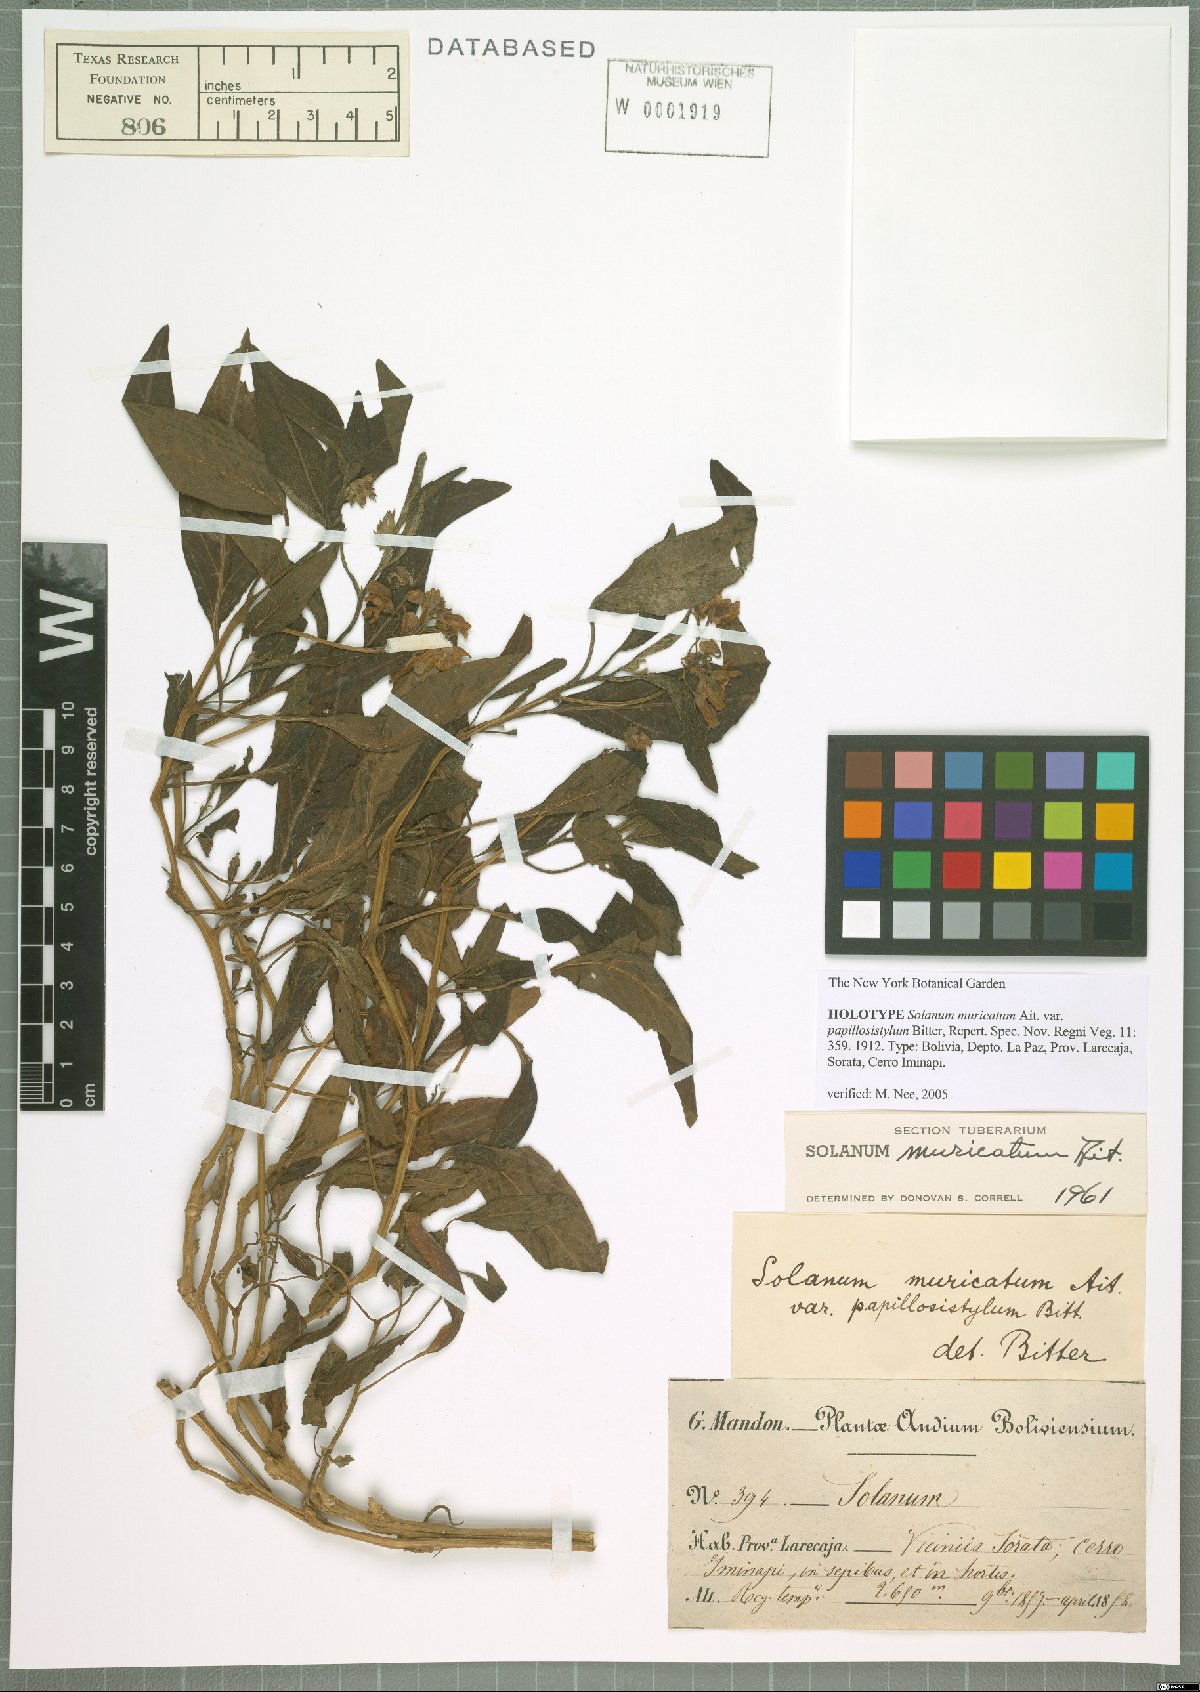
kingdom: Plantae
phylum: Tracheophyta
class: Magnoliopsida
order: Solanales
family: Solanaceae
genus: Solanum
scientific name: Solanum muricatum
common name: Peruvian pepino
